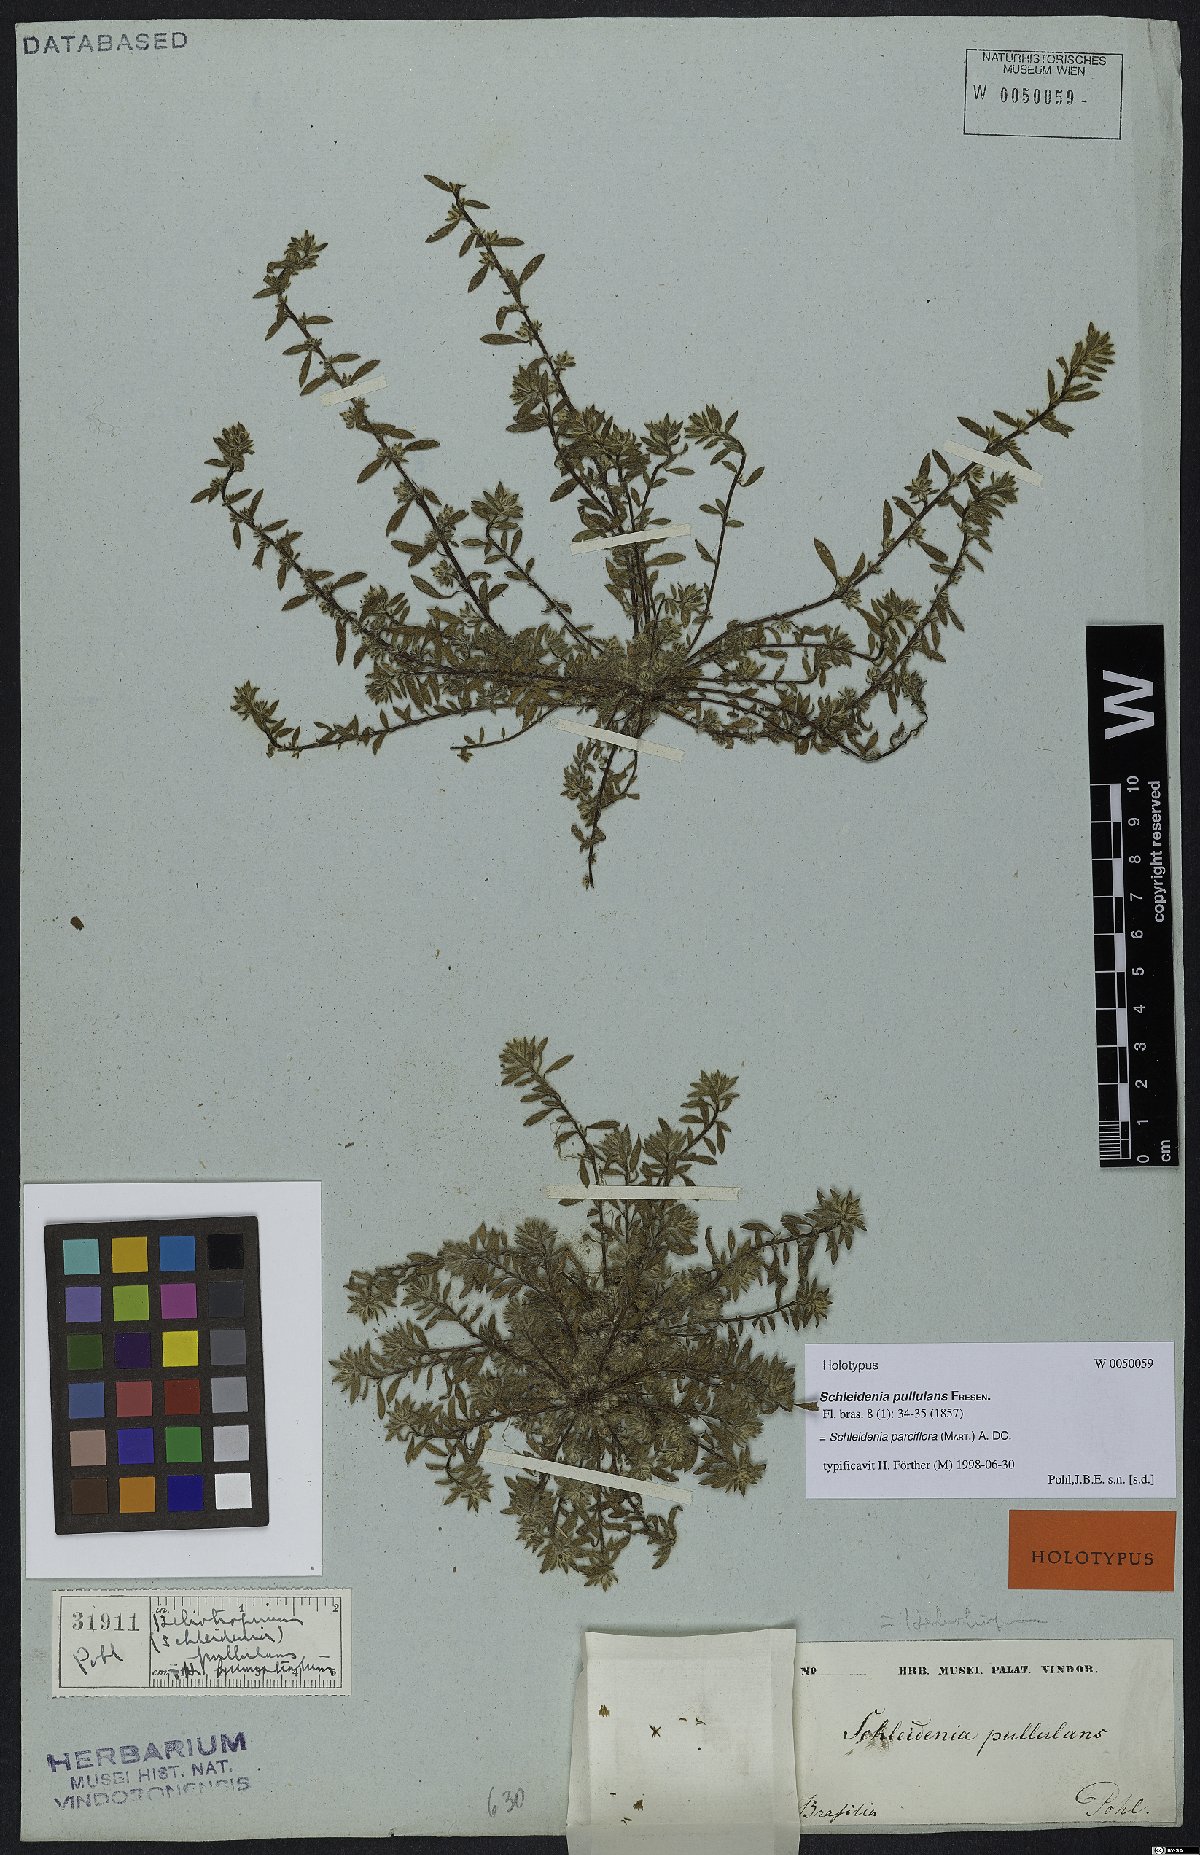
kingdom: Plantae
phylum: Tracheophyta
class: Magnoliopsida
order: Boraginales
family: Heliotropiaceae
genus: Euploca
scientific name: Euploca parciflora
